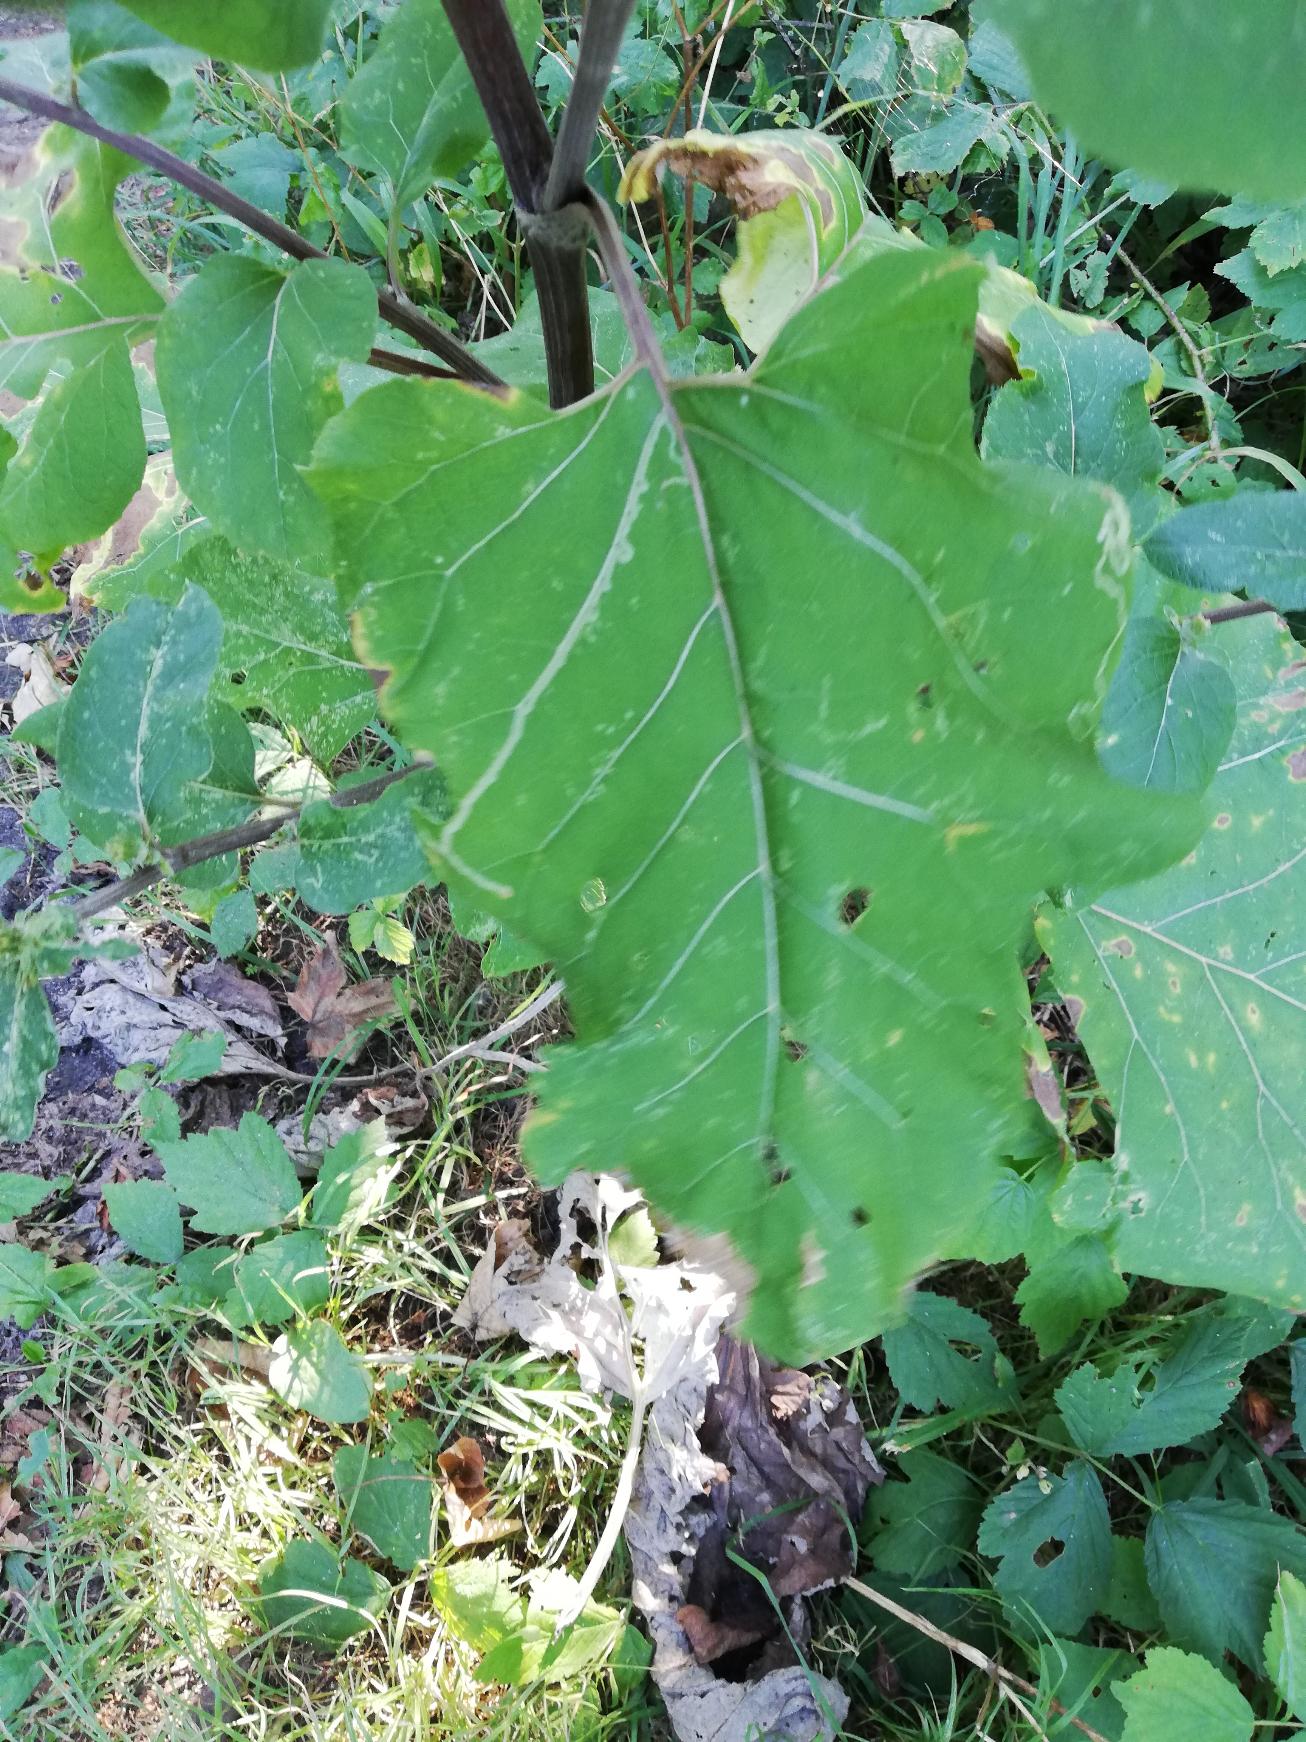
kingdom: Plantae
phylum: Tracheophyta
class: Magnoliopsida
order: Asterales
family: Asteraceae
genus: Arctium
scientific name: Arctium lappa
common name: Glat burre
